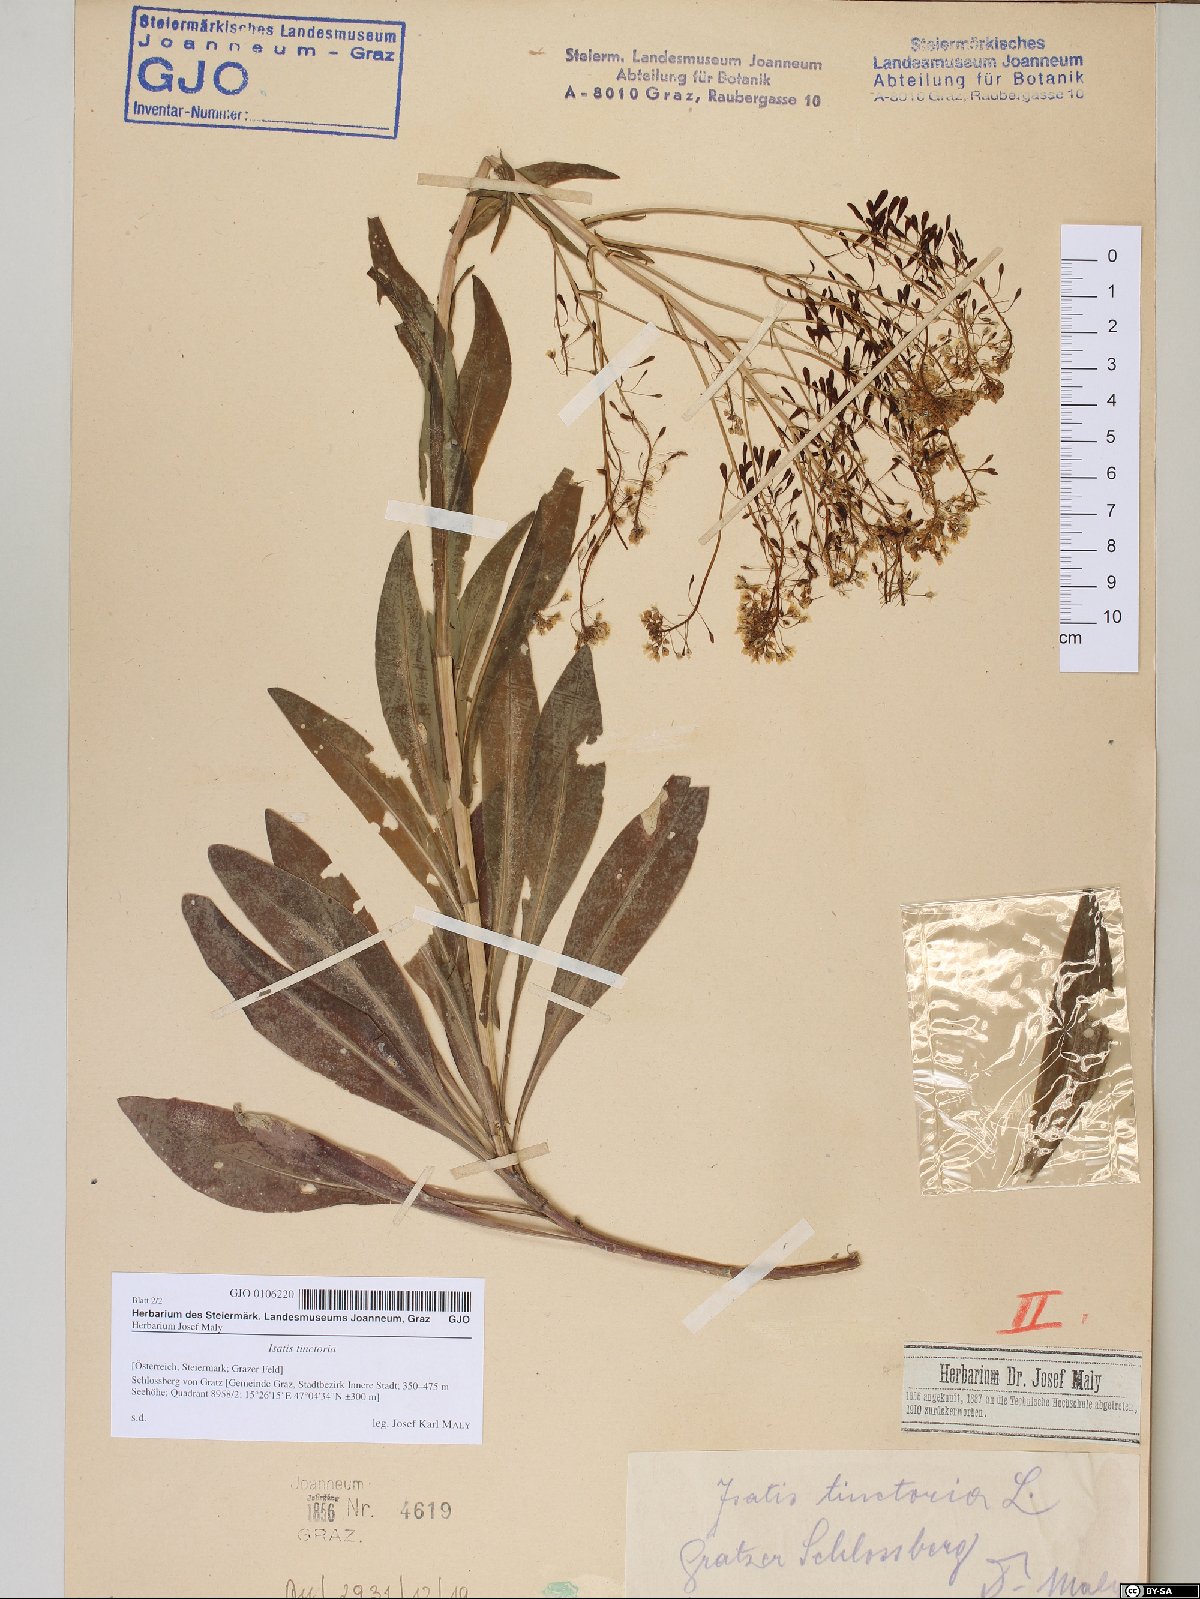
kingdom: Plantae
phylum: Tracheophyta
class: Magnoliopsida
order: Brassicales
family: Brassicaceae
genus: Isatis
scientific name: Isatis tinctoria
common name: Woad
